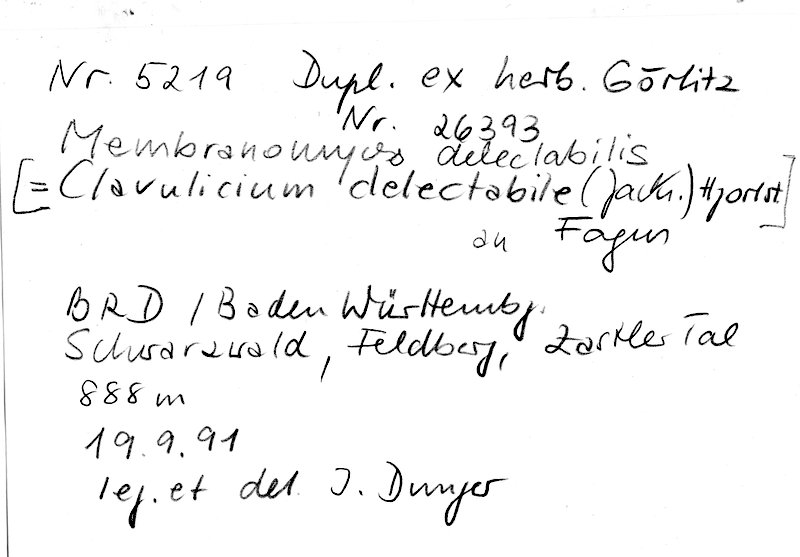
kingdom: Plantae
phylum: Tracheophyta
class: Magnoliopsida
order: Fagales
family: Fagaceae
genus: Fagus
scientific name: Fagus sylvatica
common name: Beech
